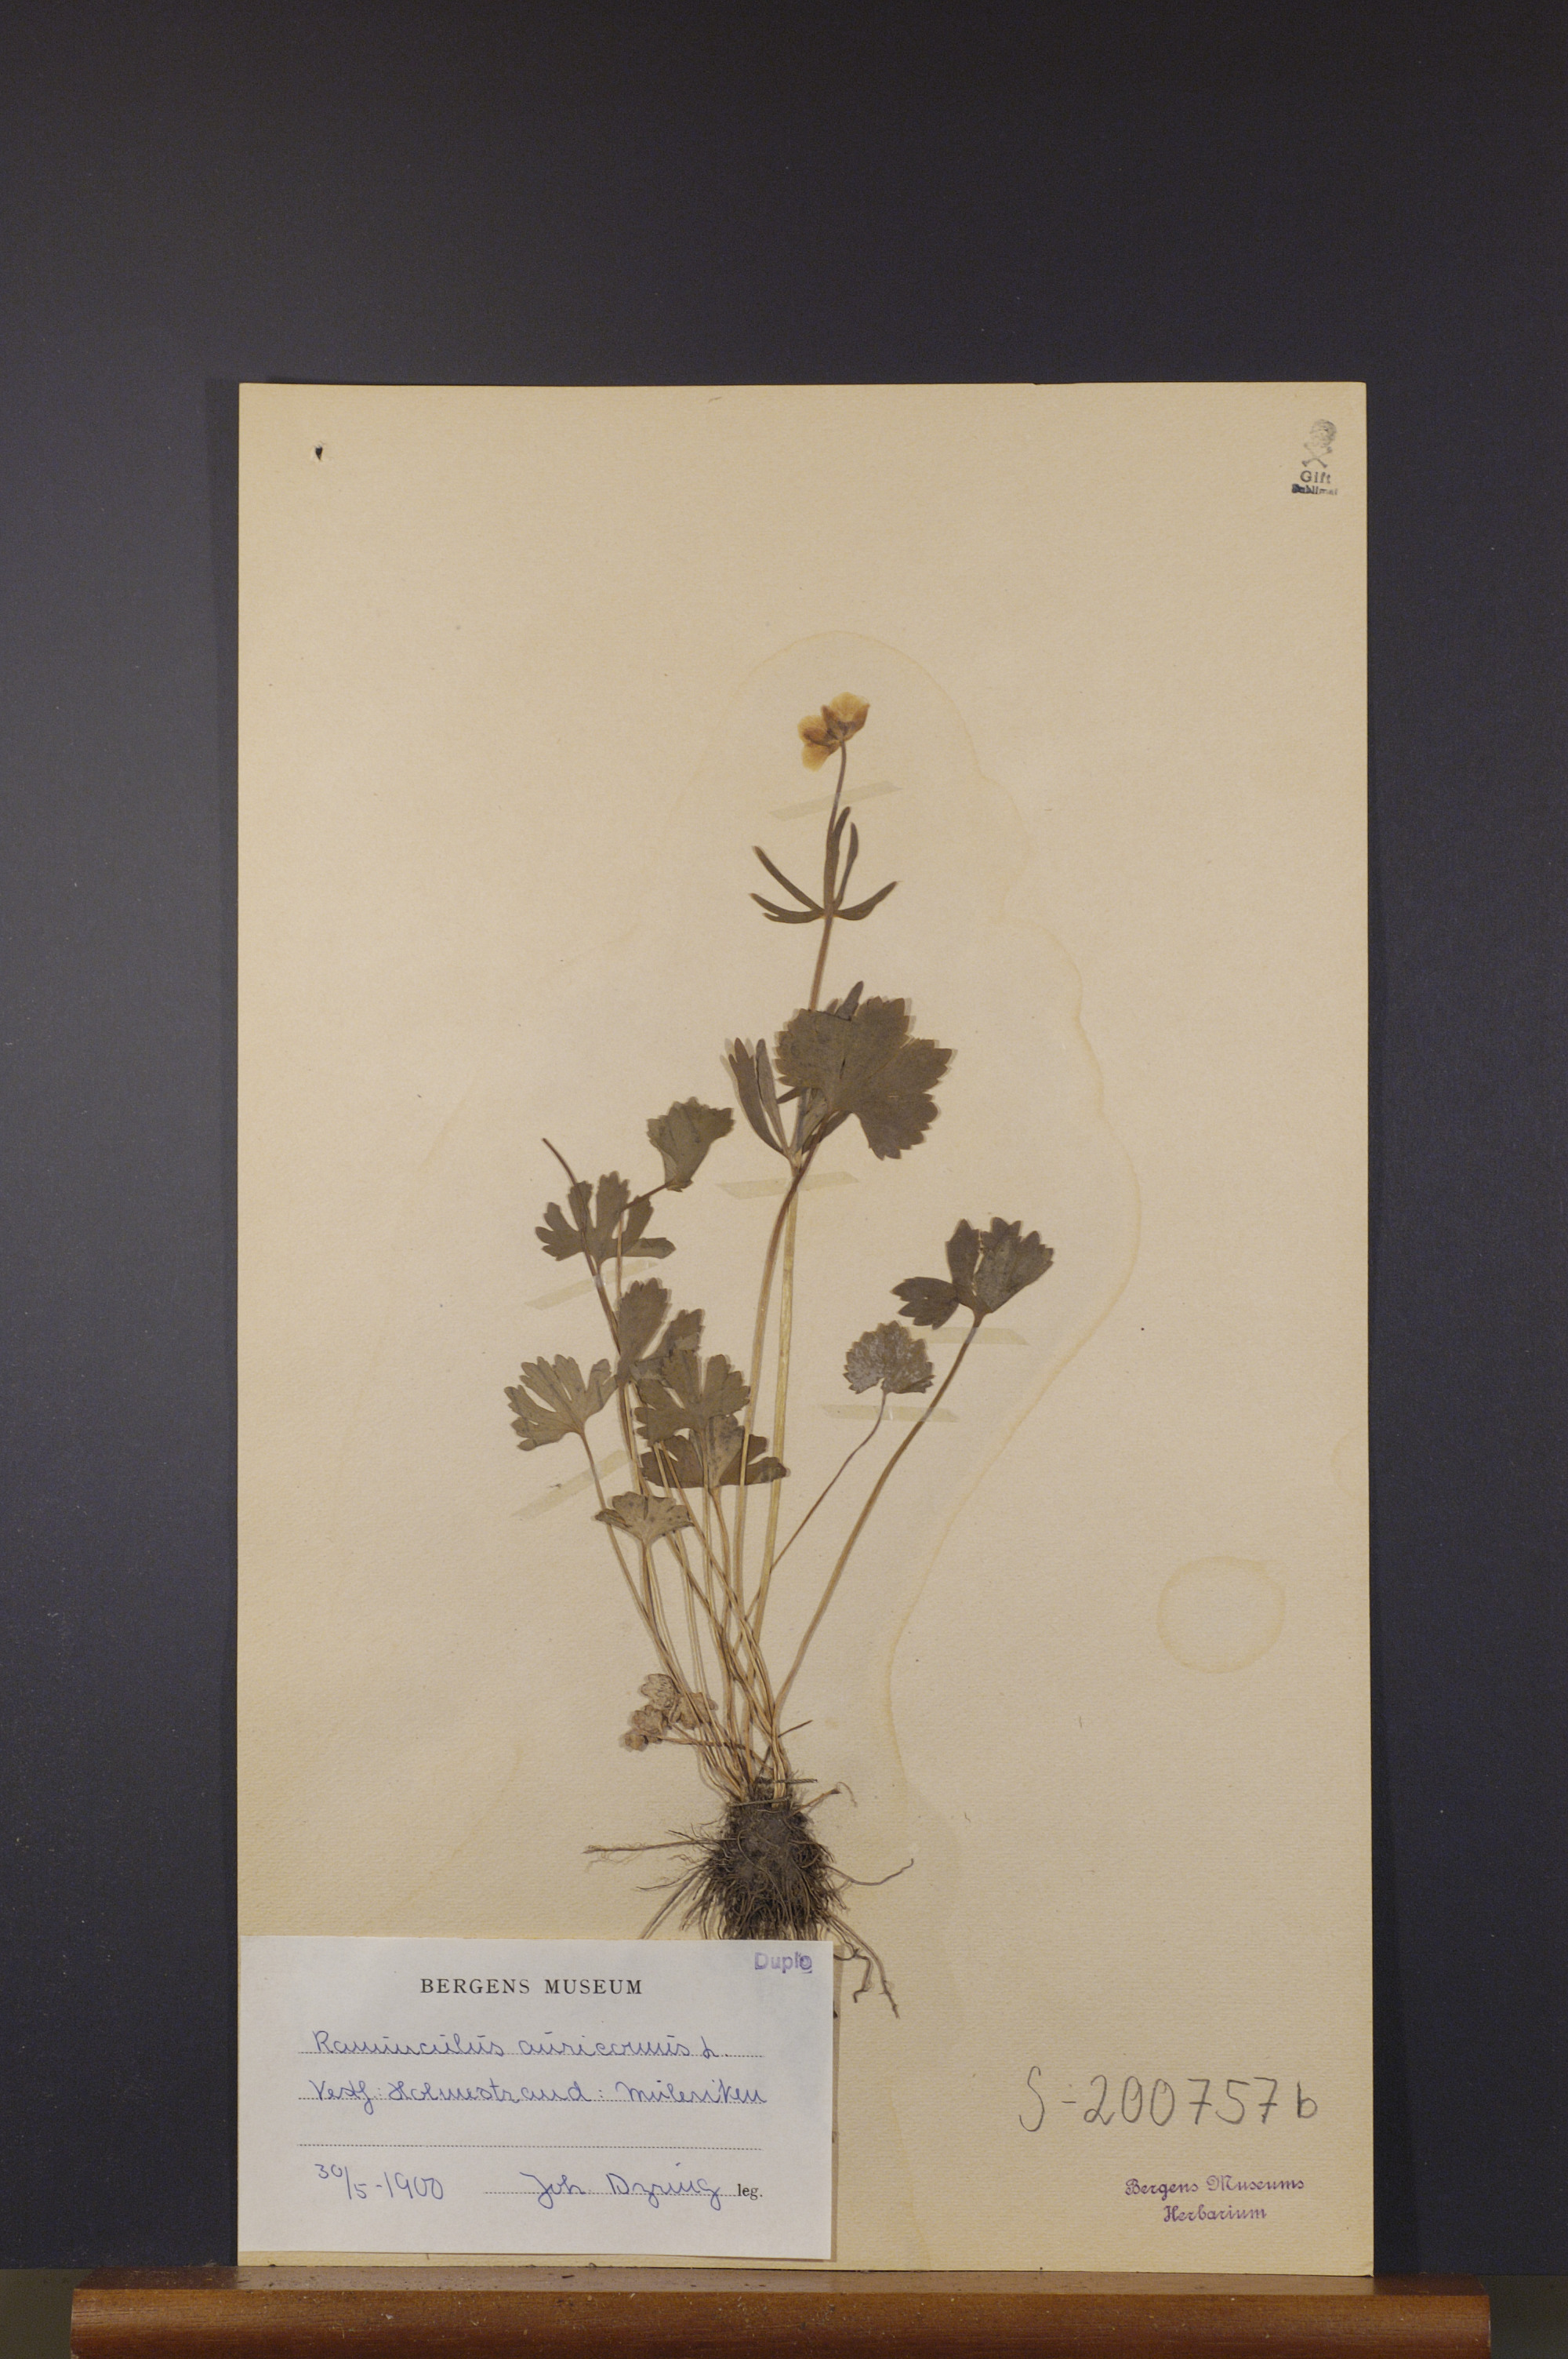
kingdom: Plantae
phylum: Tracheophyta
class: Magnoliopsida
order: Ranunculales
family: Ranunculaceae
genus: Ranunculus
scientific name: Ranunculus auricomus
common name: Goldilocks buttercup
